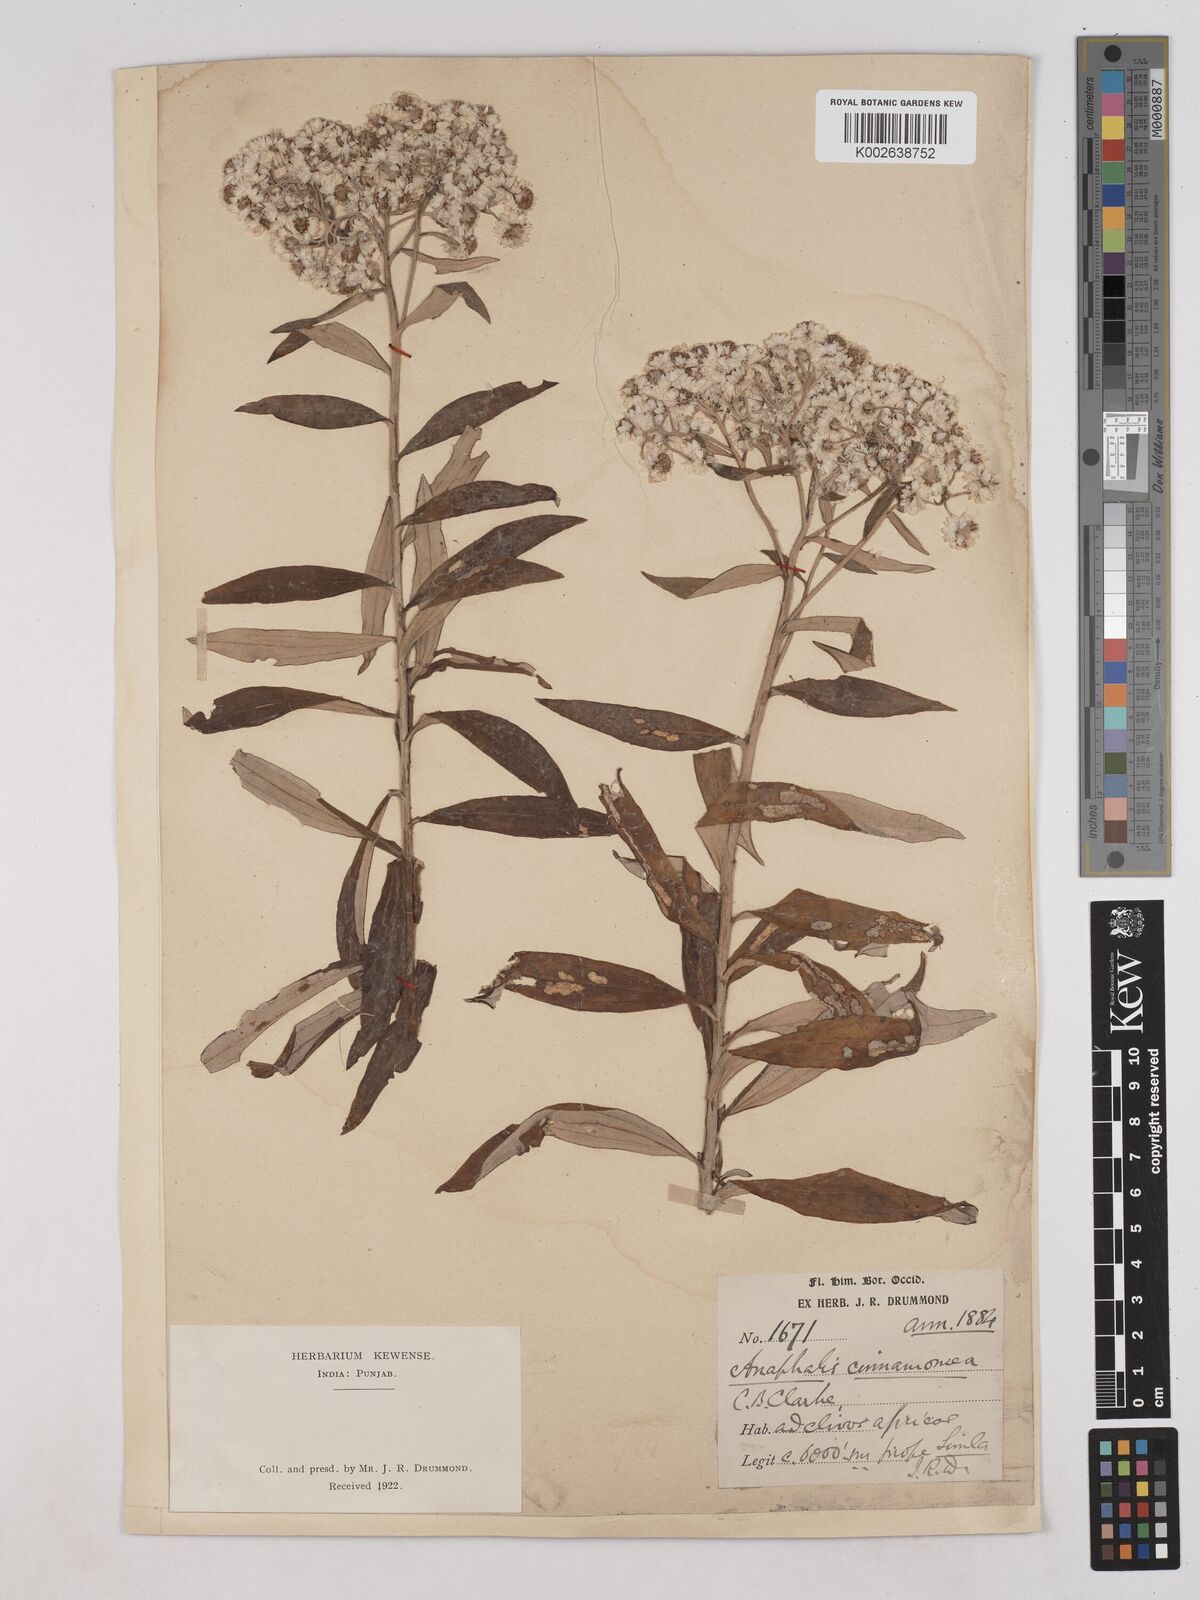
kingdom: Plantae
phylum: Tracheophyta
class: Magnoliopsida
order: Asterales
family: Asteraceae
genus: Anaphalis
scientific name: Anaphalis marcescens
